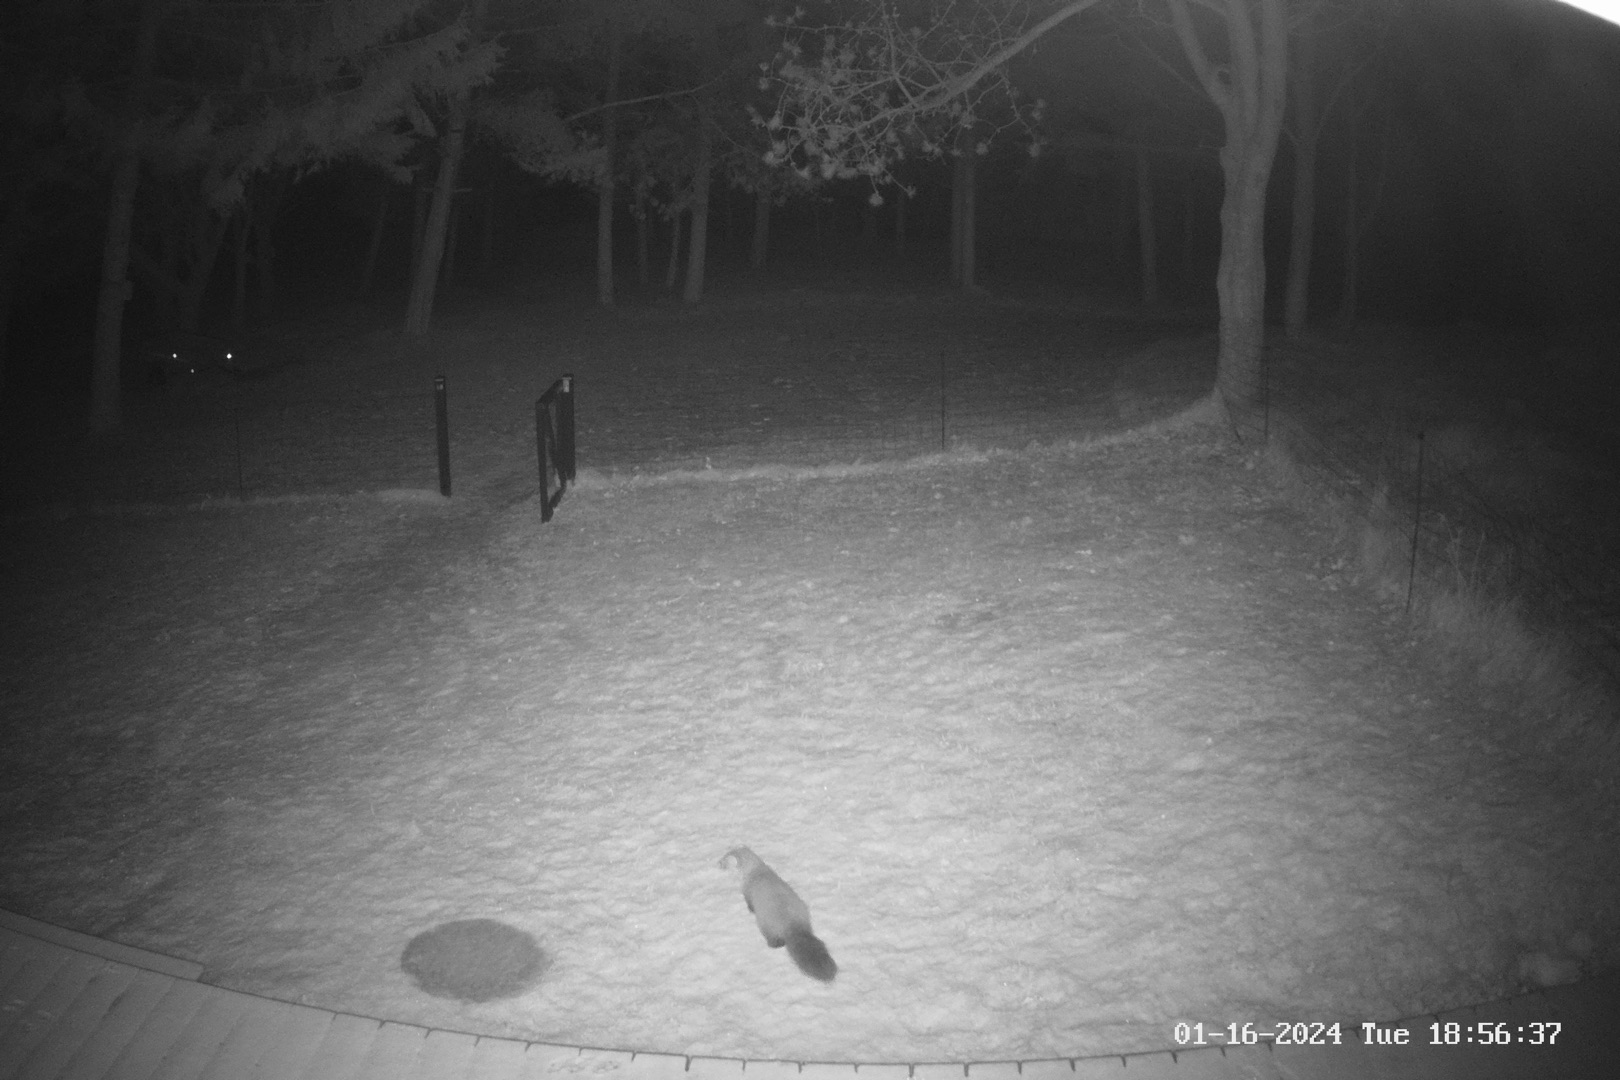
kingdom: Animalia
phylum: Chordata
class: Mammalia
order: Carnivora
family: Mustelidae
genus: Martes
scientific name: Martes foina
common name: Husmår
